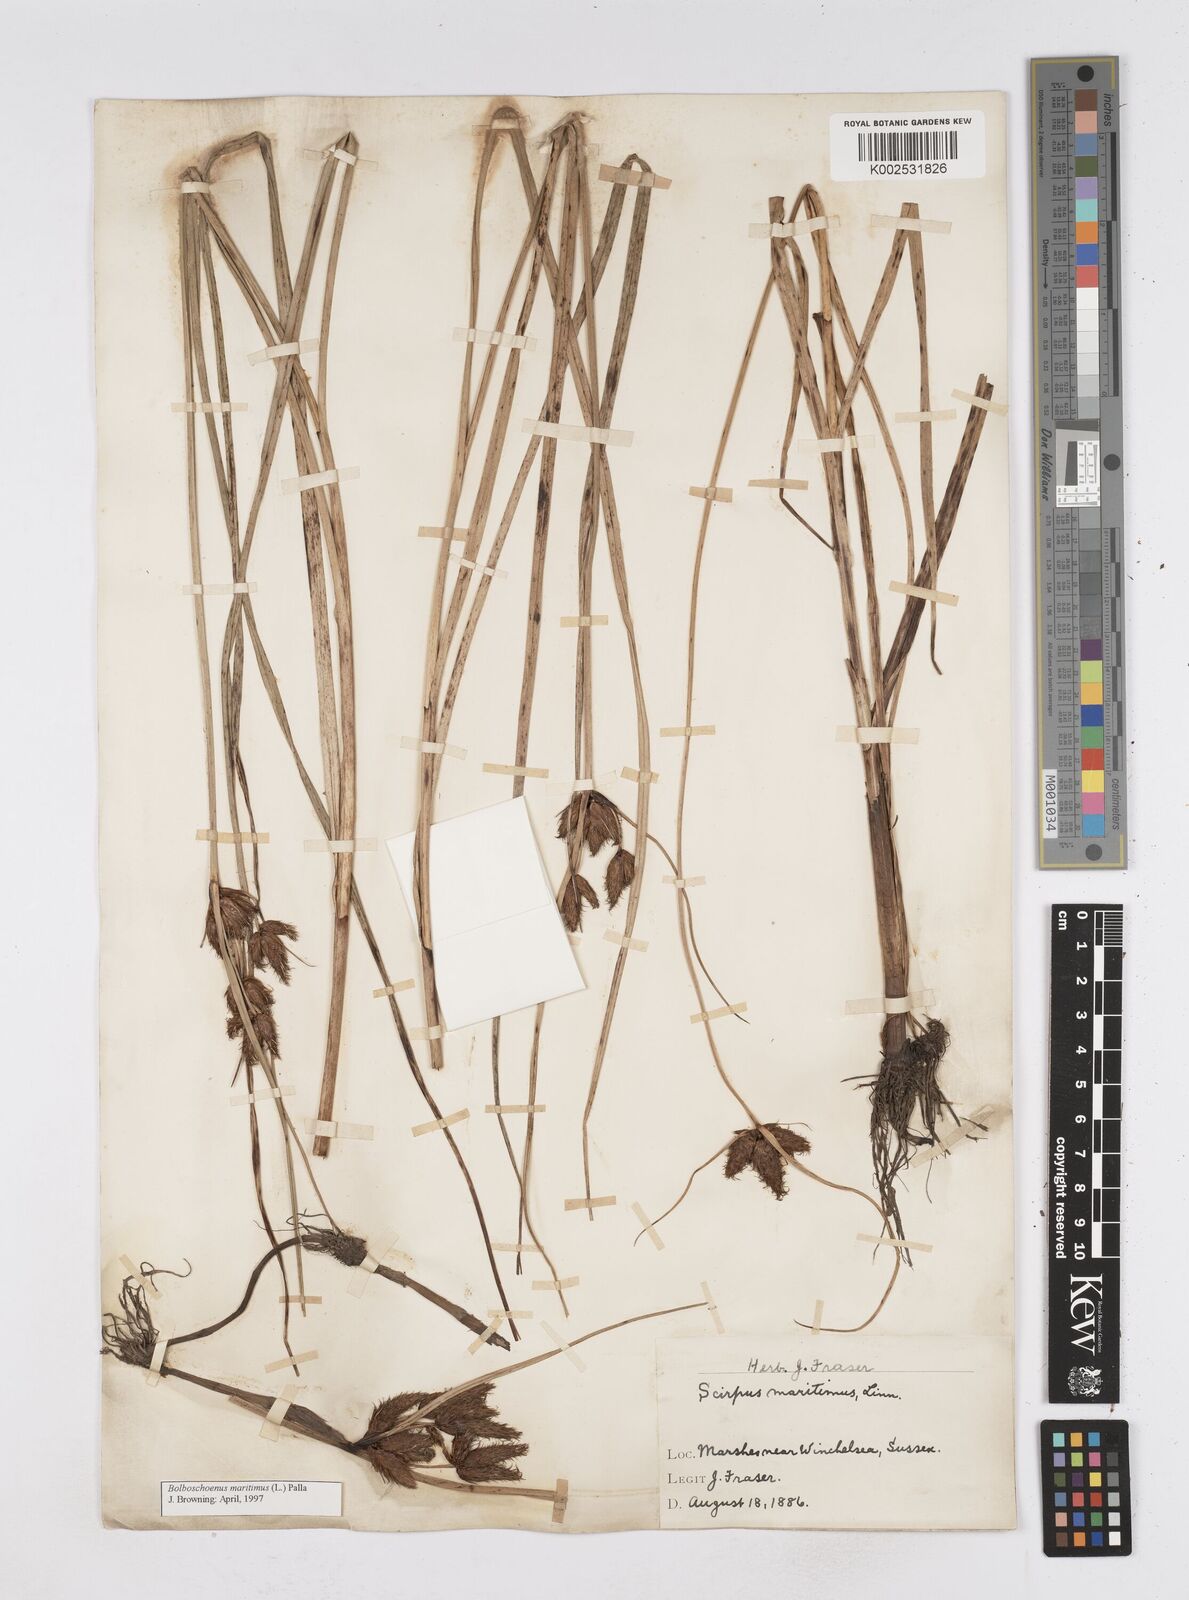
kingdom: Plantae
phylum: Tracheophyta
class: Liliopsida
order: Poales
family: Cyperaceae
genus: Bolboschoenus
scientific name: Bolboschoenus maritimus
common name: Sea club-rush
